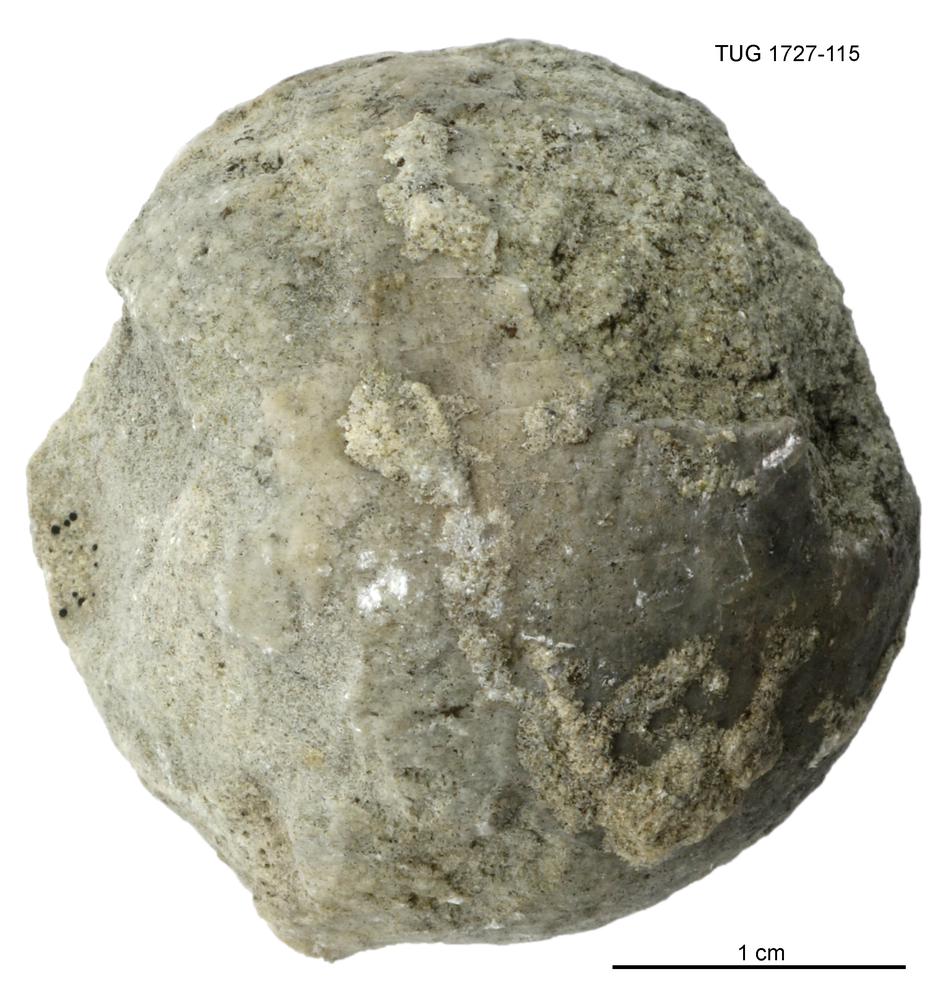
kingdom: Animalia
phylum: Echinodermata
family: Echinosphaeritidae
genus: Echinosphaerites
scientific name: Echinosphaerites
